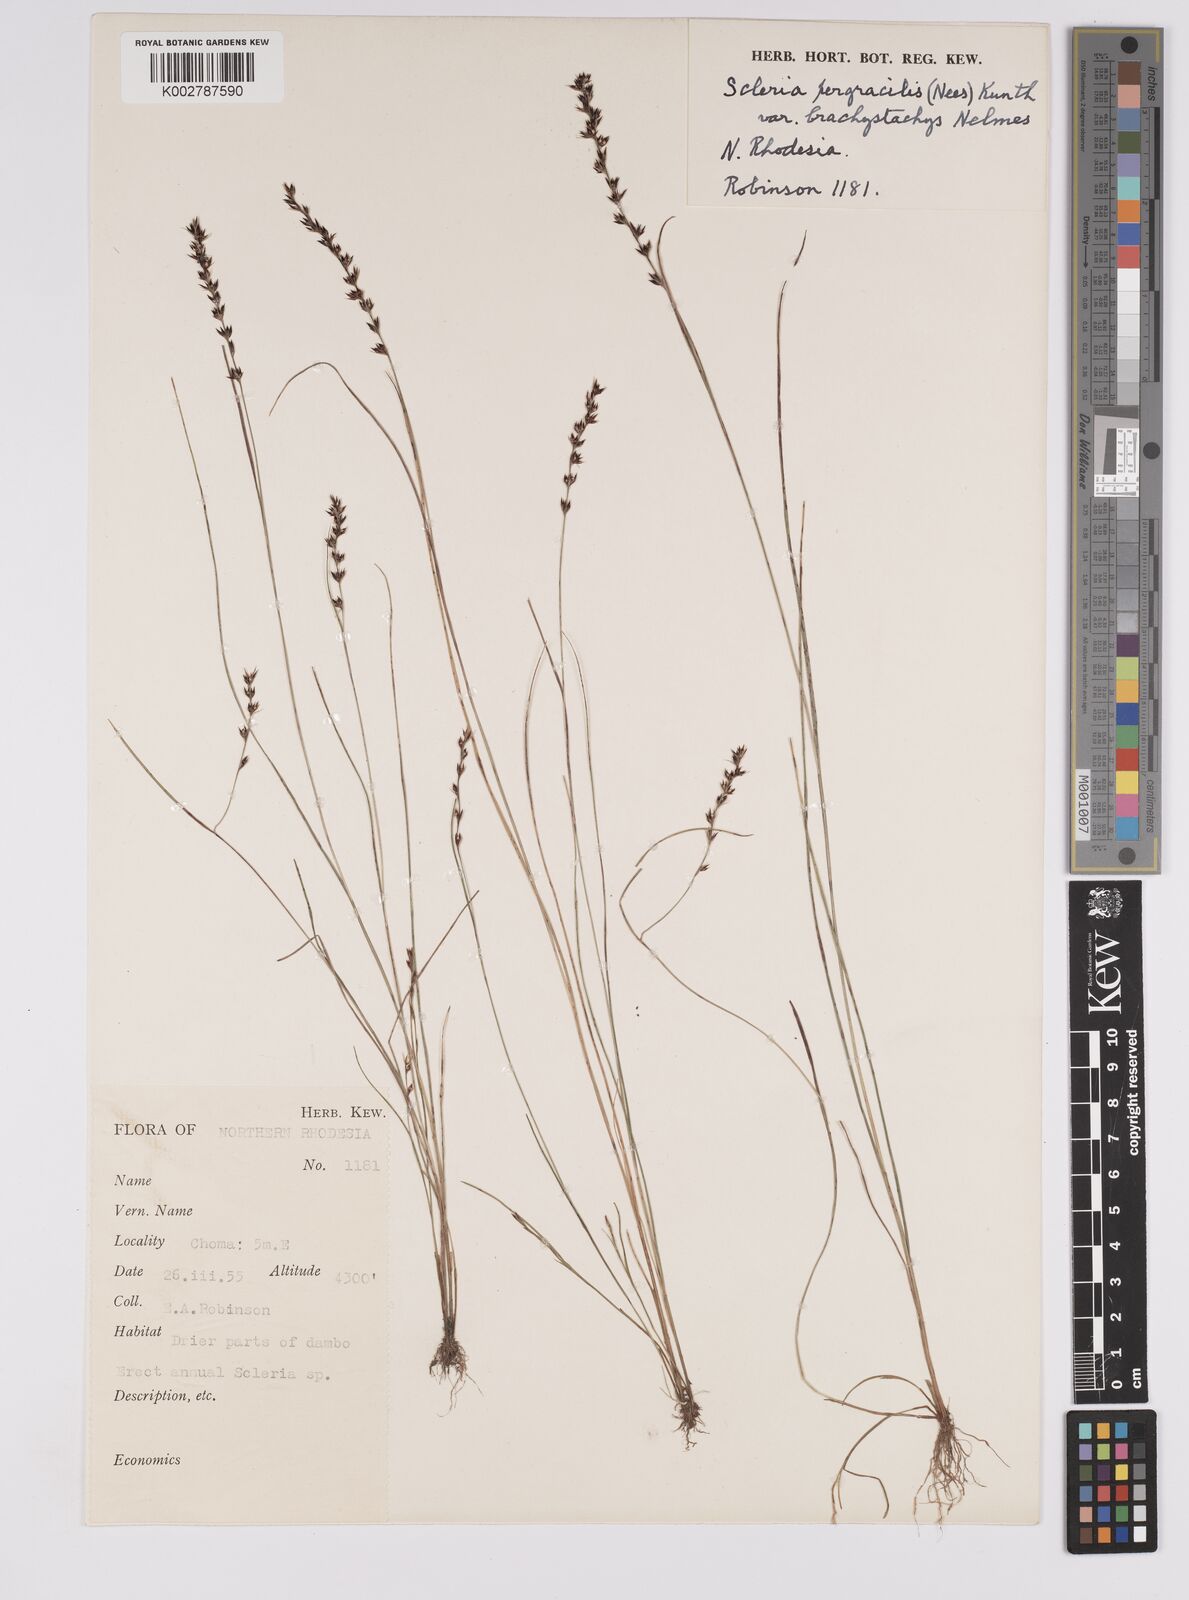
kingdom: Plantae
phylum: Tracheophyta
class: Liliopsida
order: Poales
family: Cyperaceae
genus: Scleria
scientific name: Scleria pergracilis
